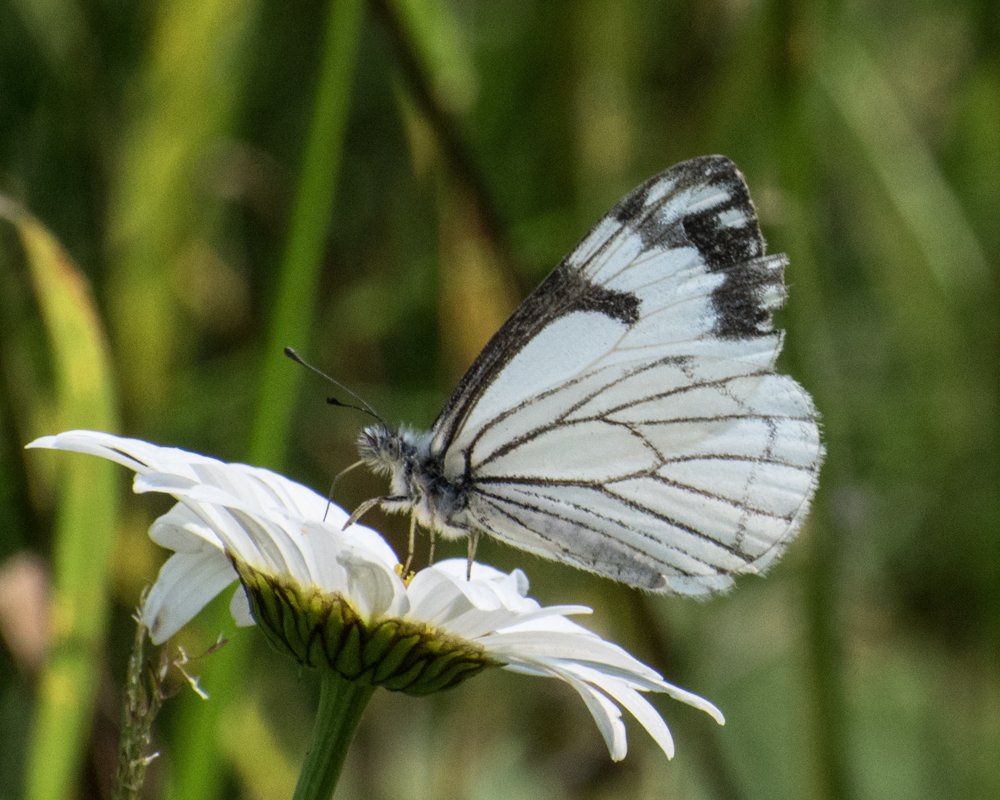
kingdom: Animalia
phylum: Arthropoda
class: Insecta
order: Lepidoptera
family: Pieridae
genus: Neophasia
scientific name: Neophasia menapia
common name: Pine White
